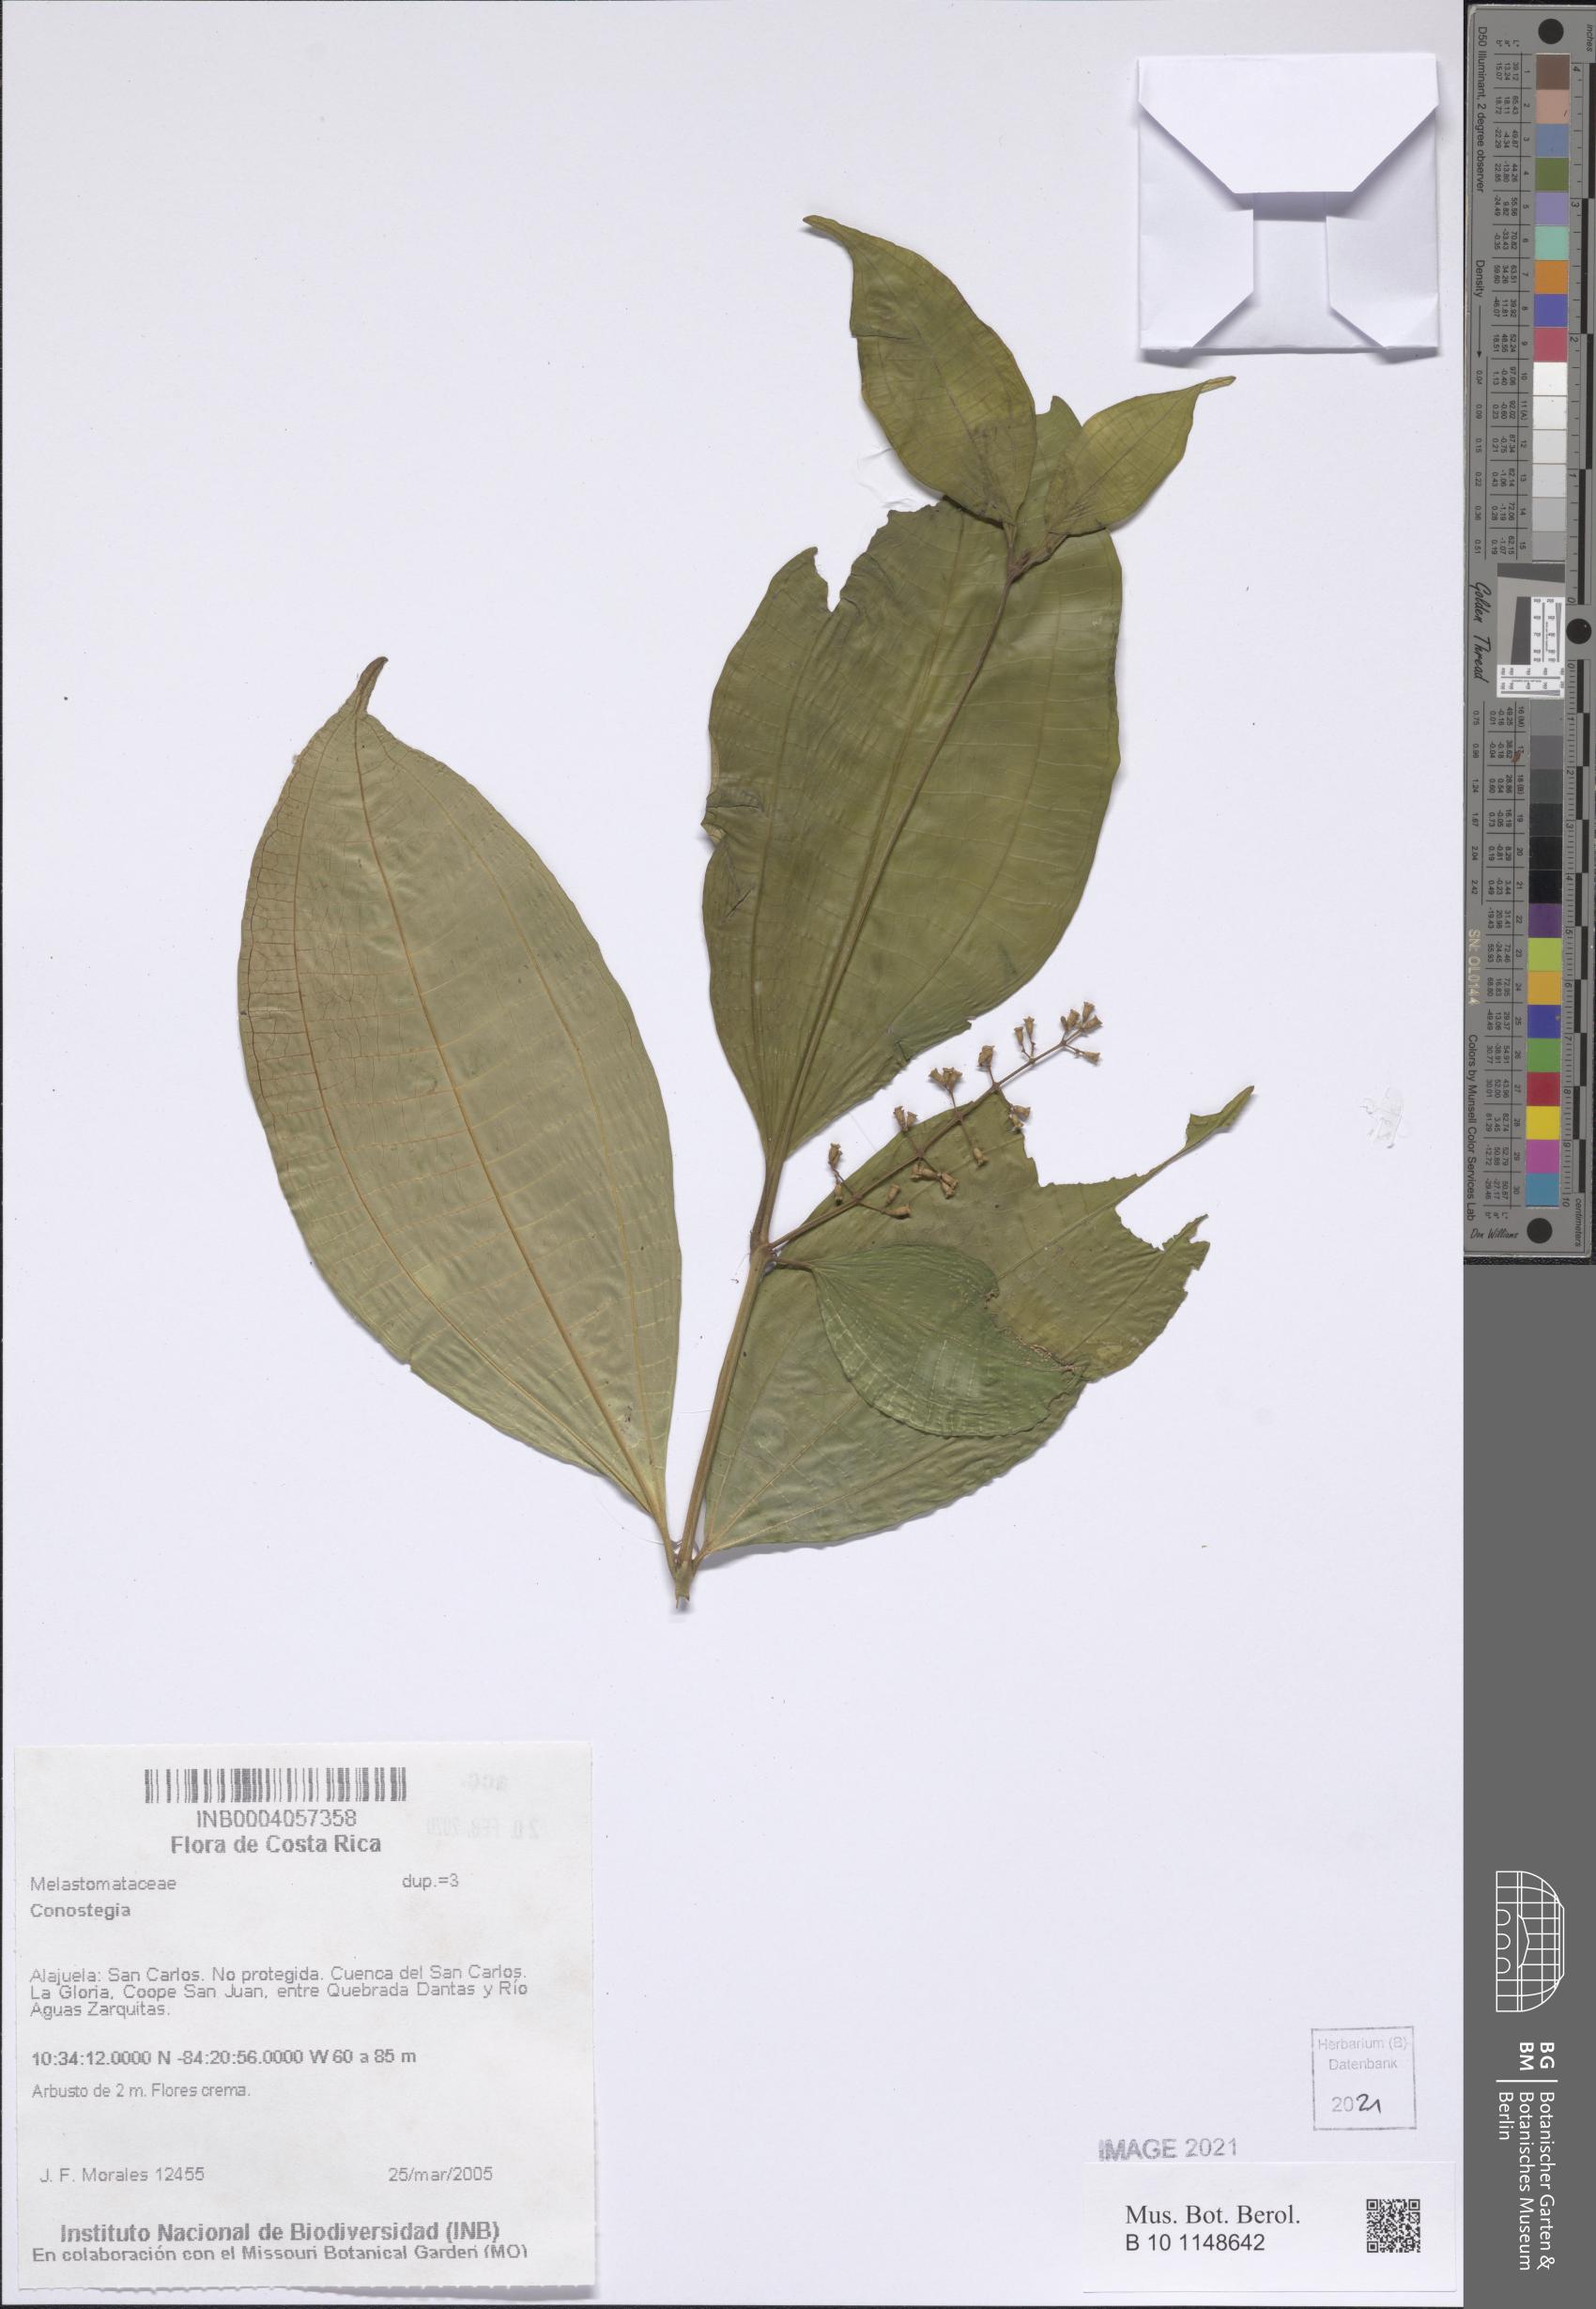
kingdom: Plantae
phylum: Tracheophyta
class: Magnoliopsida
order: Myrtales
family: Melastomataceae
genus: Miconia
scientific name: Miconia
